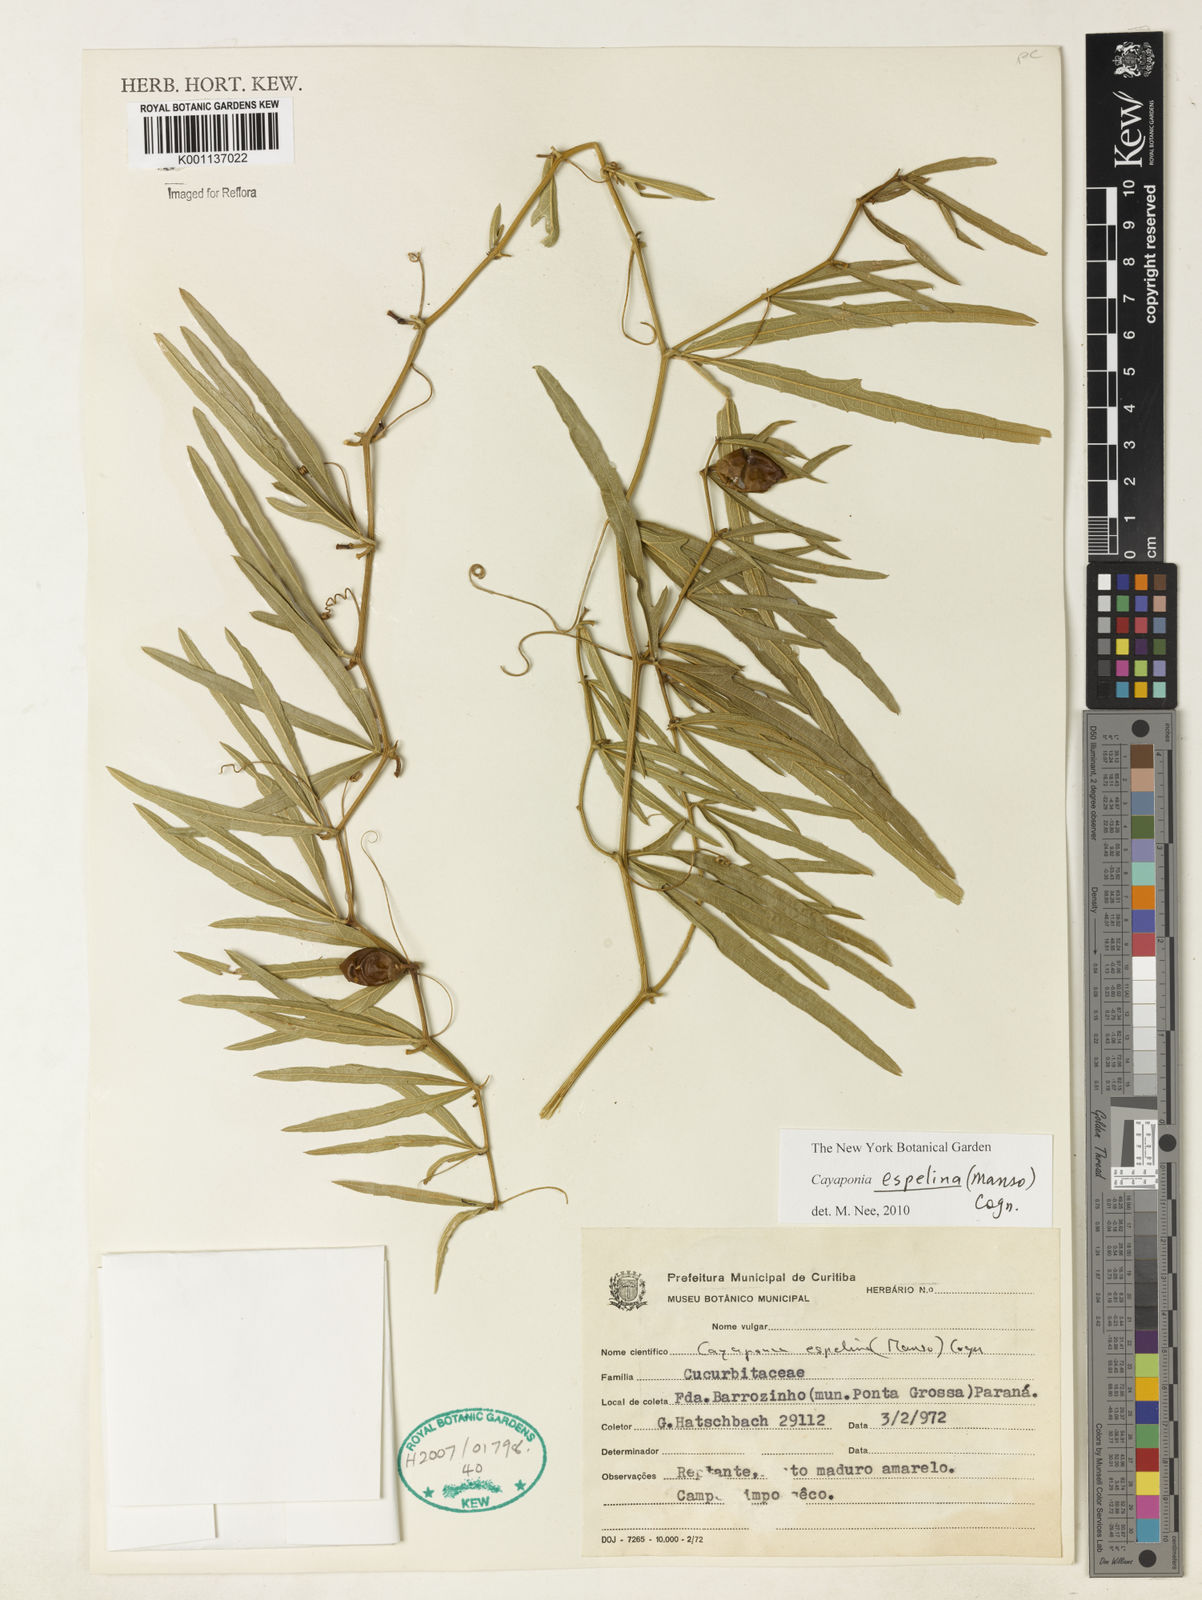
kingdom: Plantae
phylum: Tracheophyta
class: Magnoliopsida
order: Cucurbitales
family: Cucurbitaceae
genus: Cayaponia
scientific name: Cayaponia espelina
